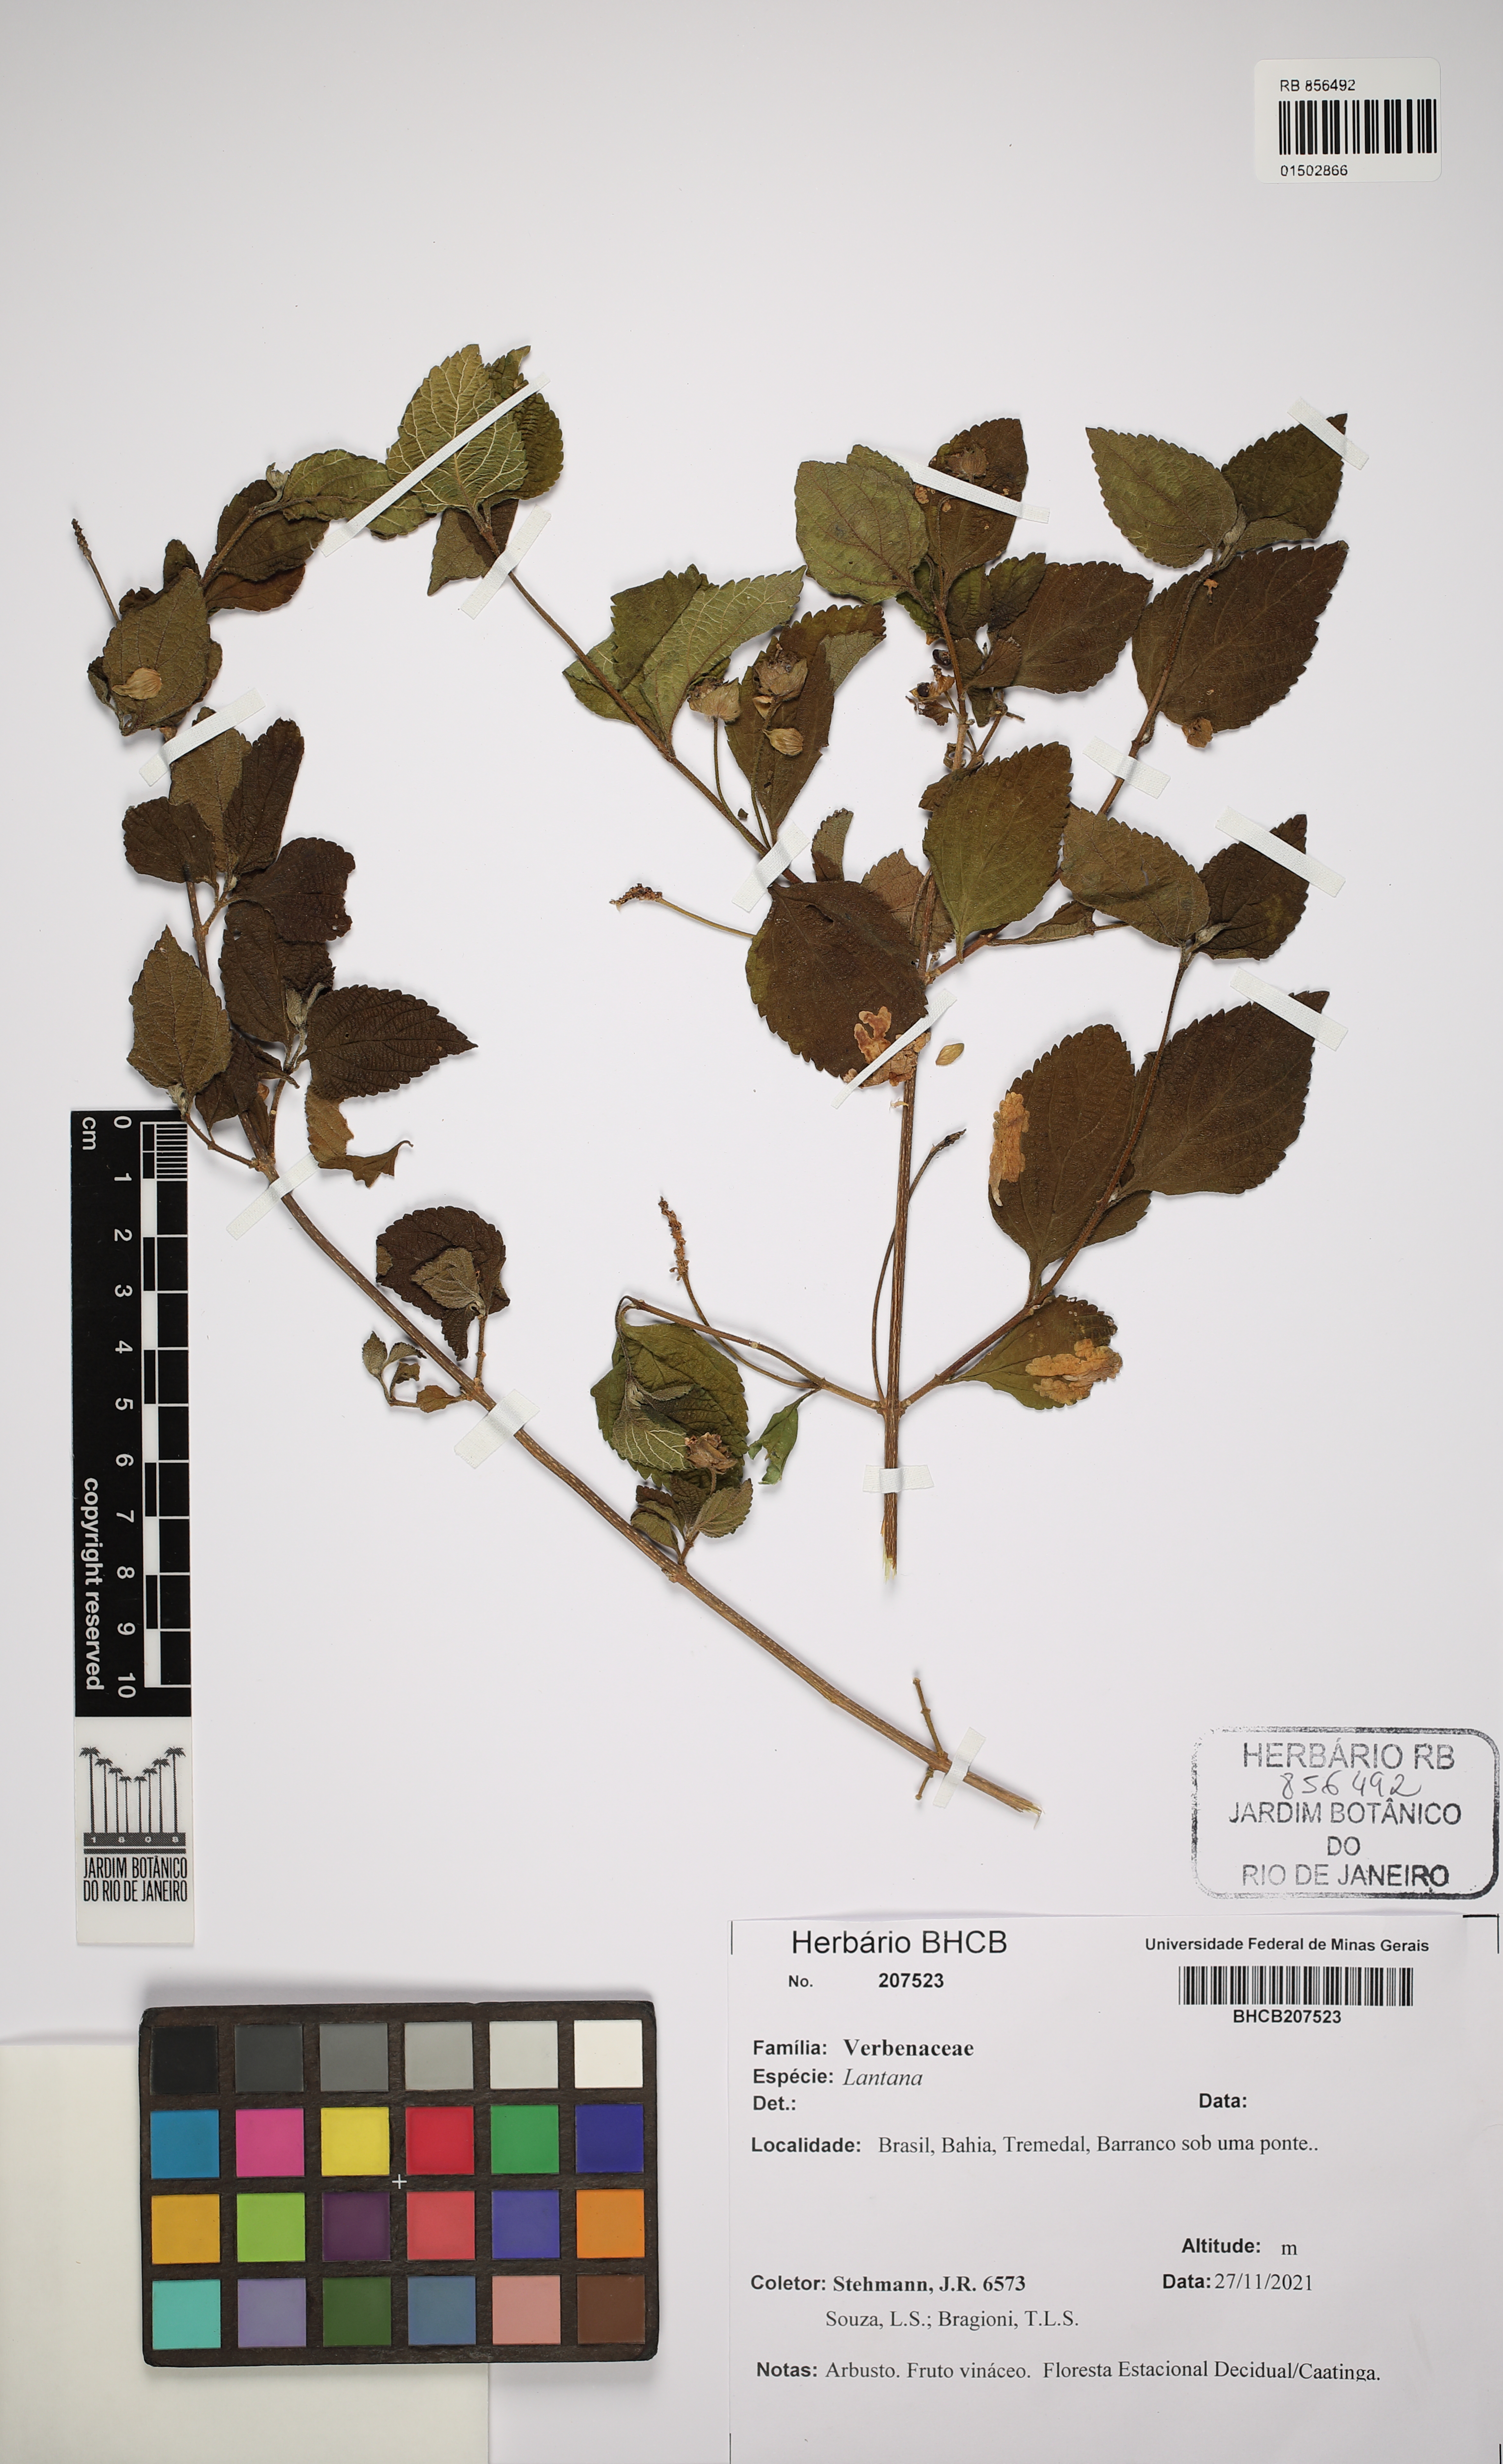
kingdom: Plantae
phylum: Tracheophyta
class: Magnoliopsida
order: Lamiales
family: Verbenaceae
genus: Lantana
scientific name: Lantana
